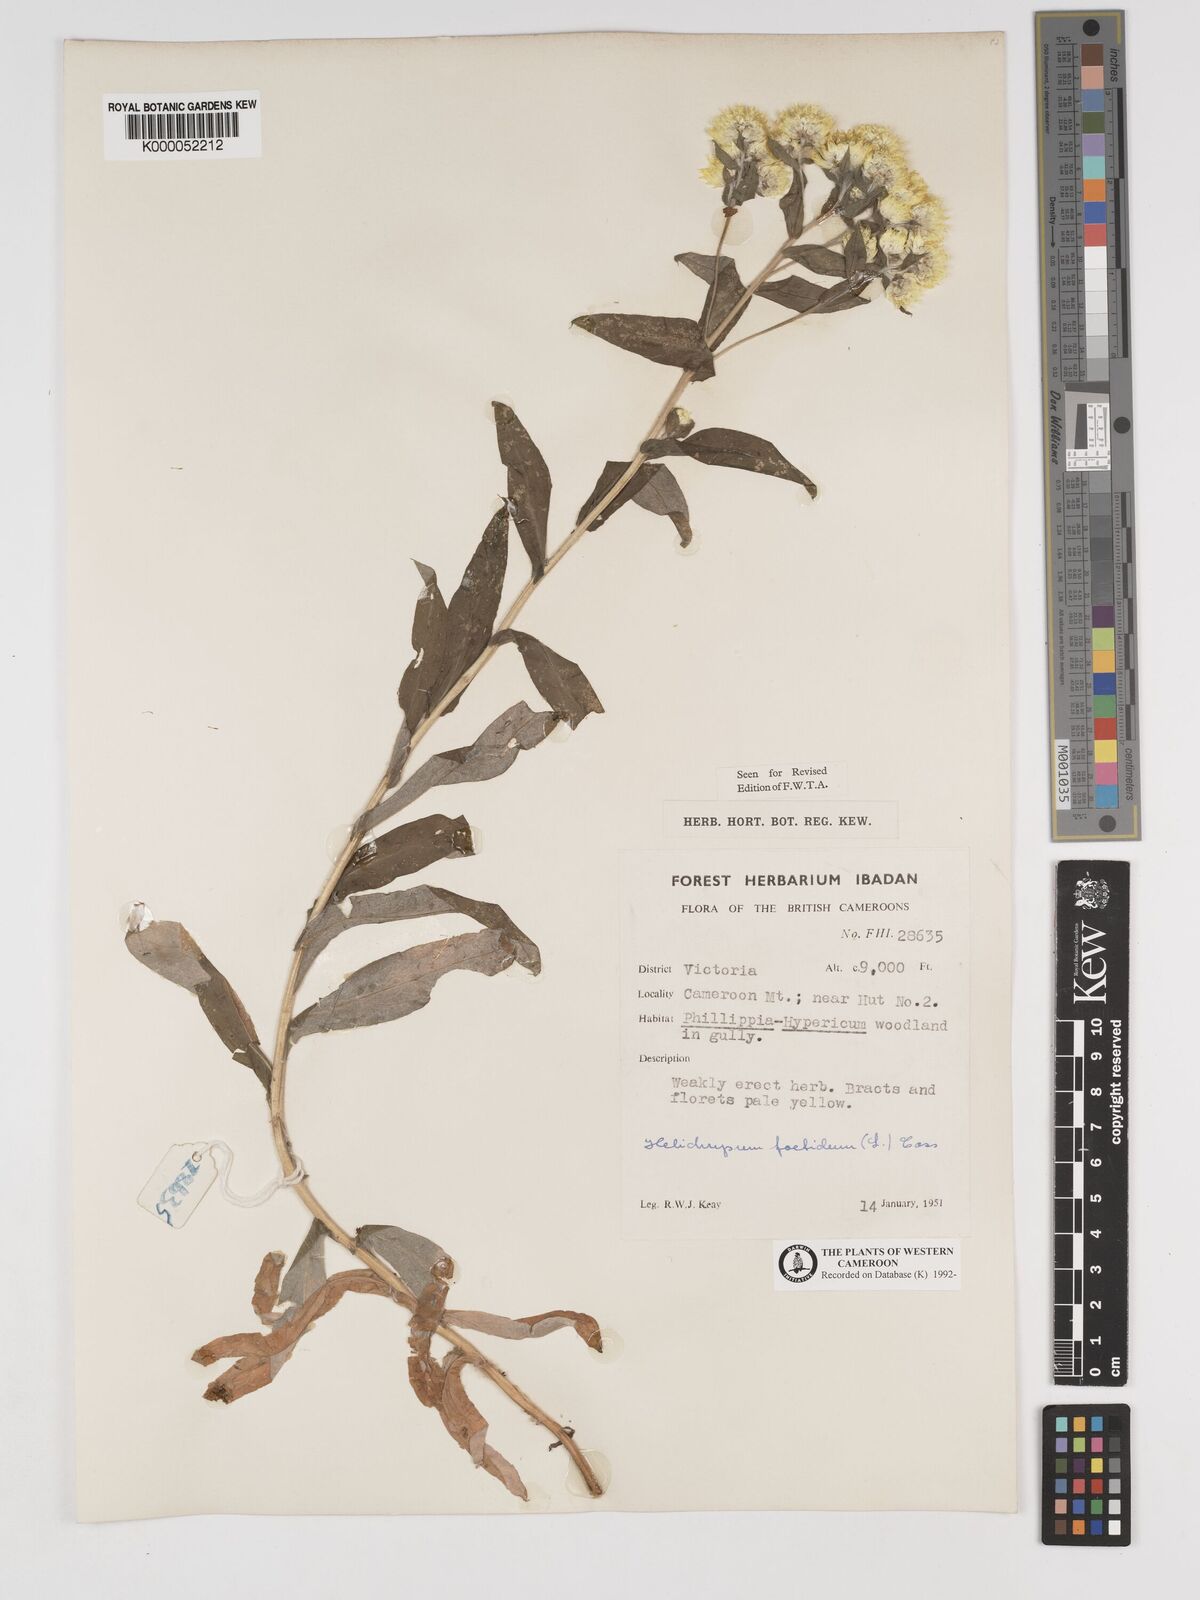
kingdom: Plantae
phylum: Tracheophyta
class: Magnoliopsida
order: Asterales
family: Asteraceae
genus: Helichrysum
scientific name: Helichrysum foetidum
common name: Stinking everlasting
